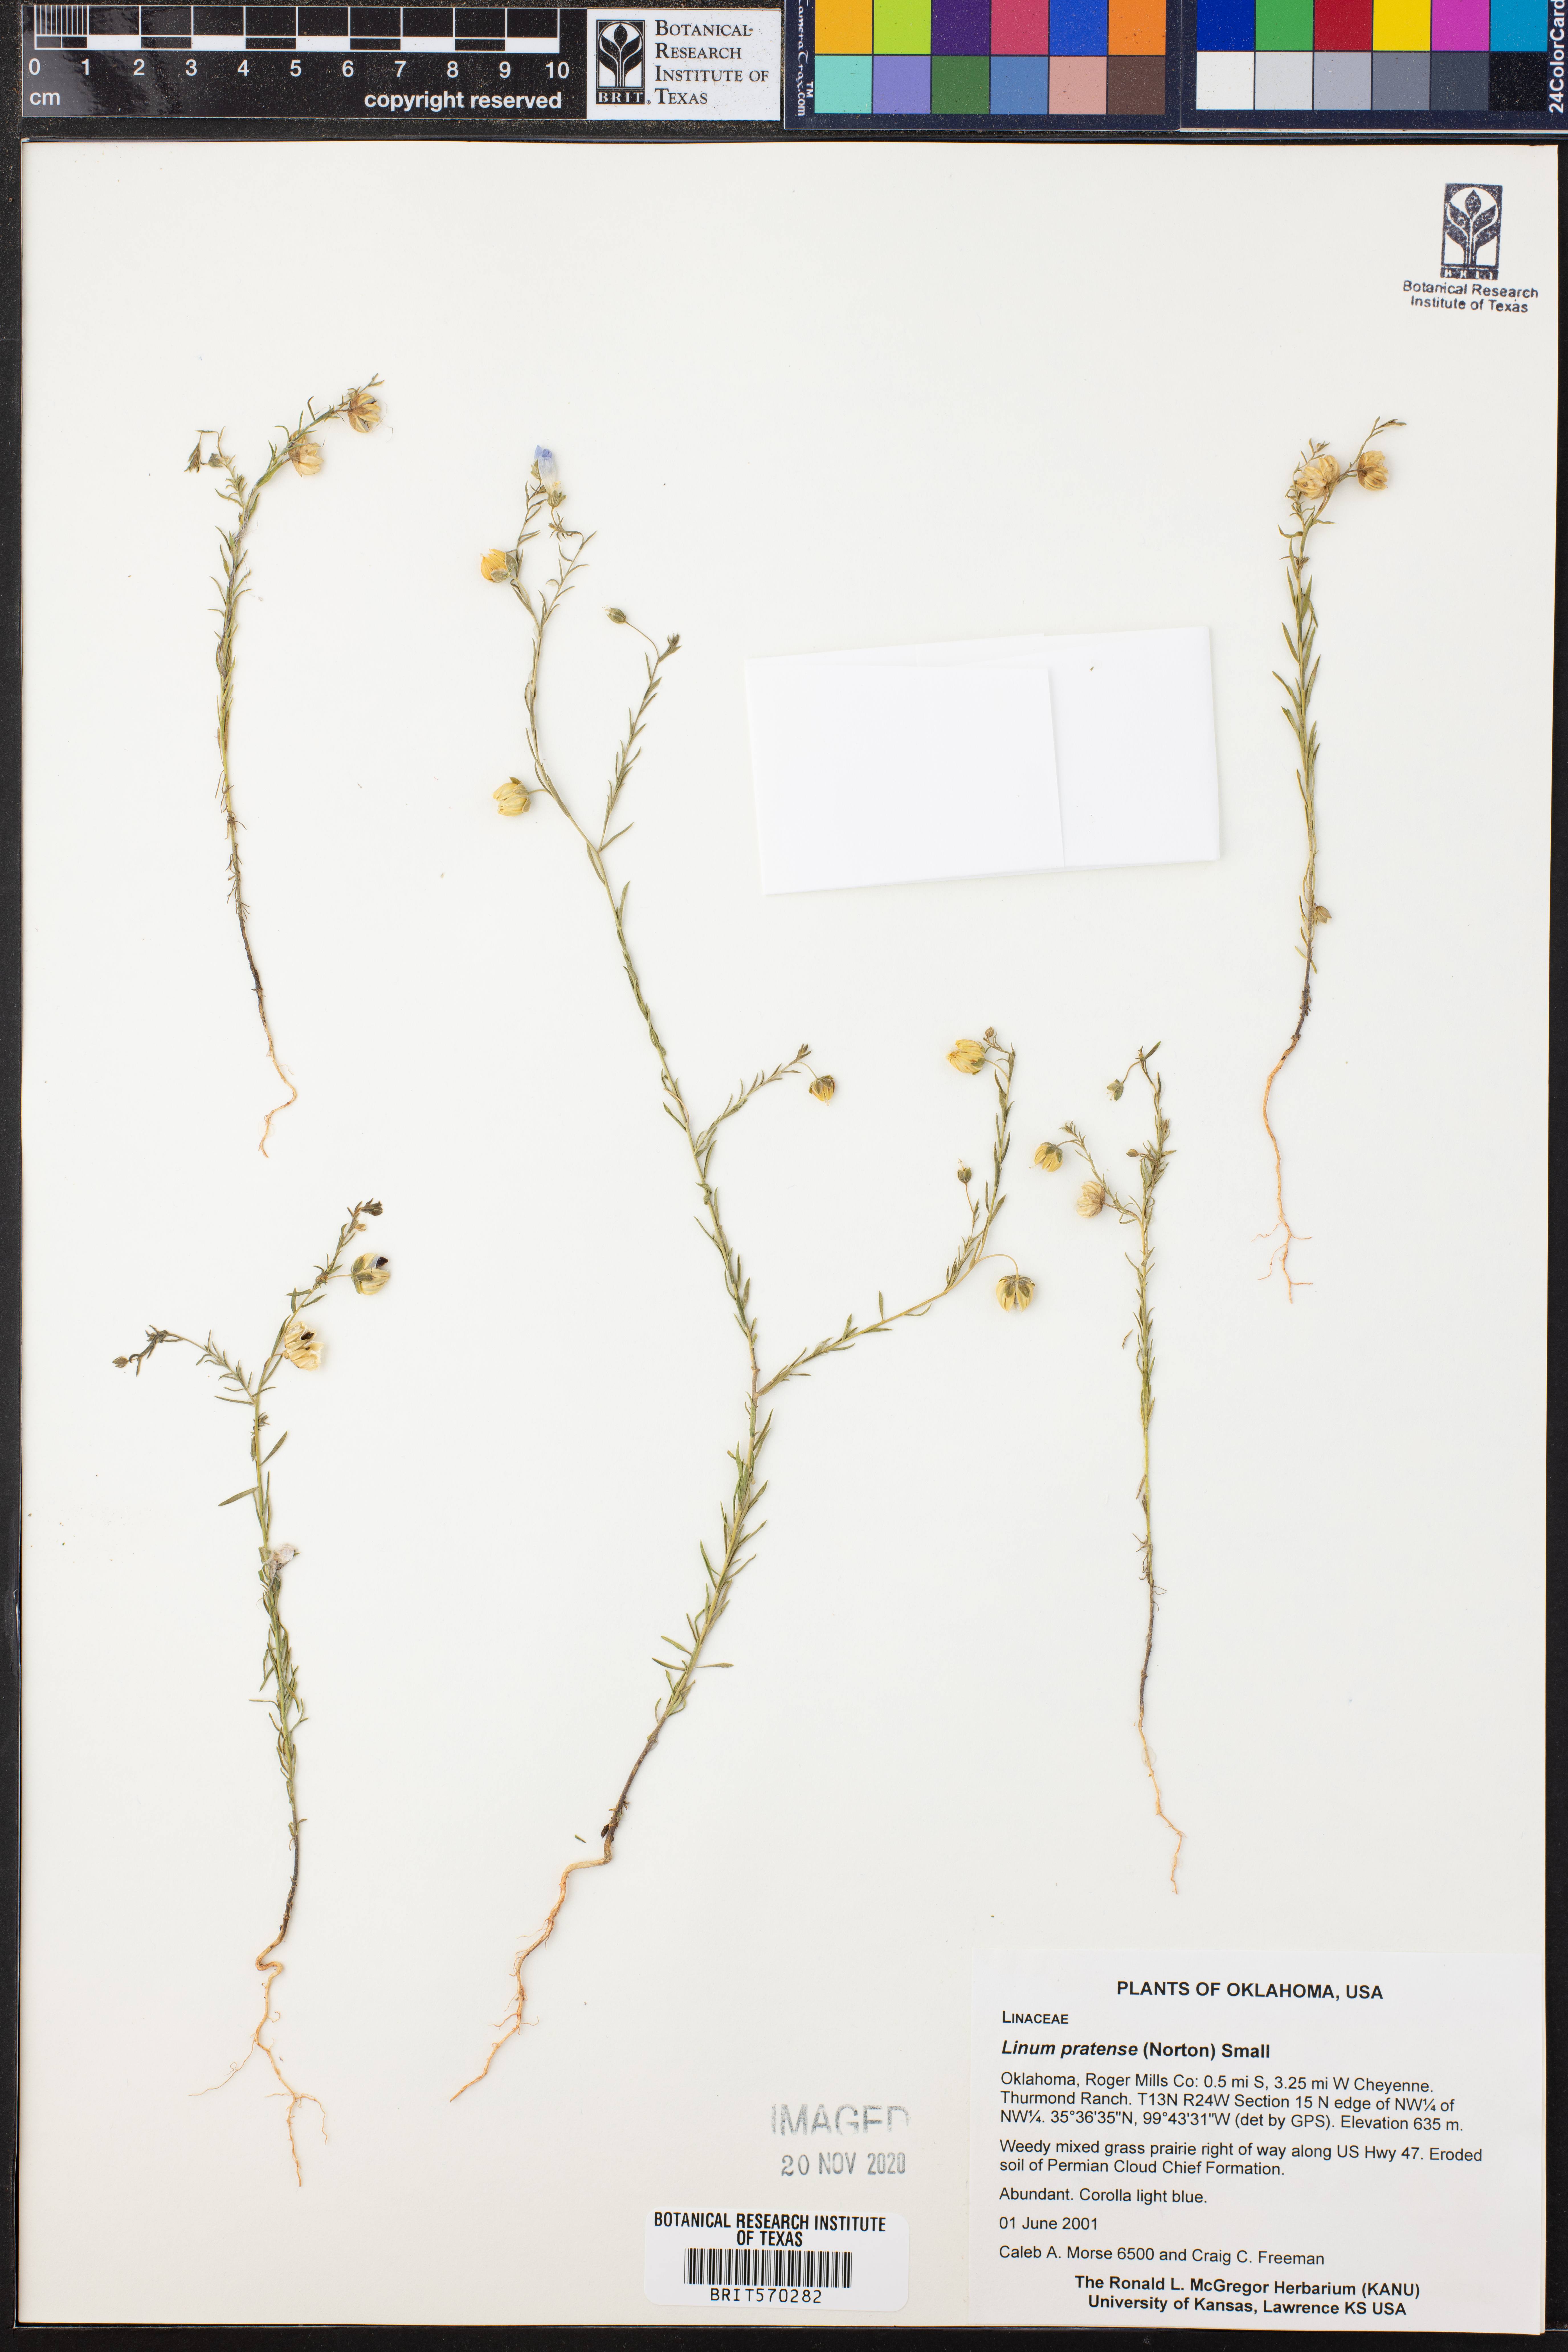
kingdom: Plantae
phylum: Tracheophyta
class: Magnoliopsida
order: Malpighiales
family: Linaceae
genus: Linum
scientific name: Linum pratense
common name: Norton's flax
